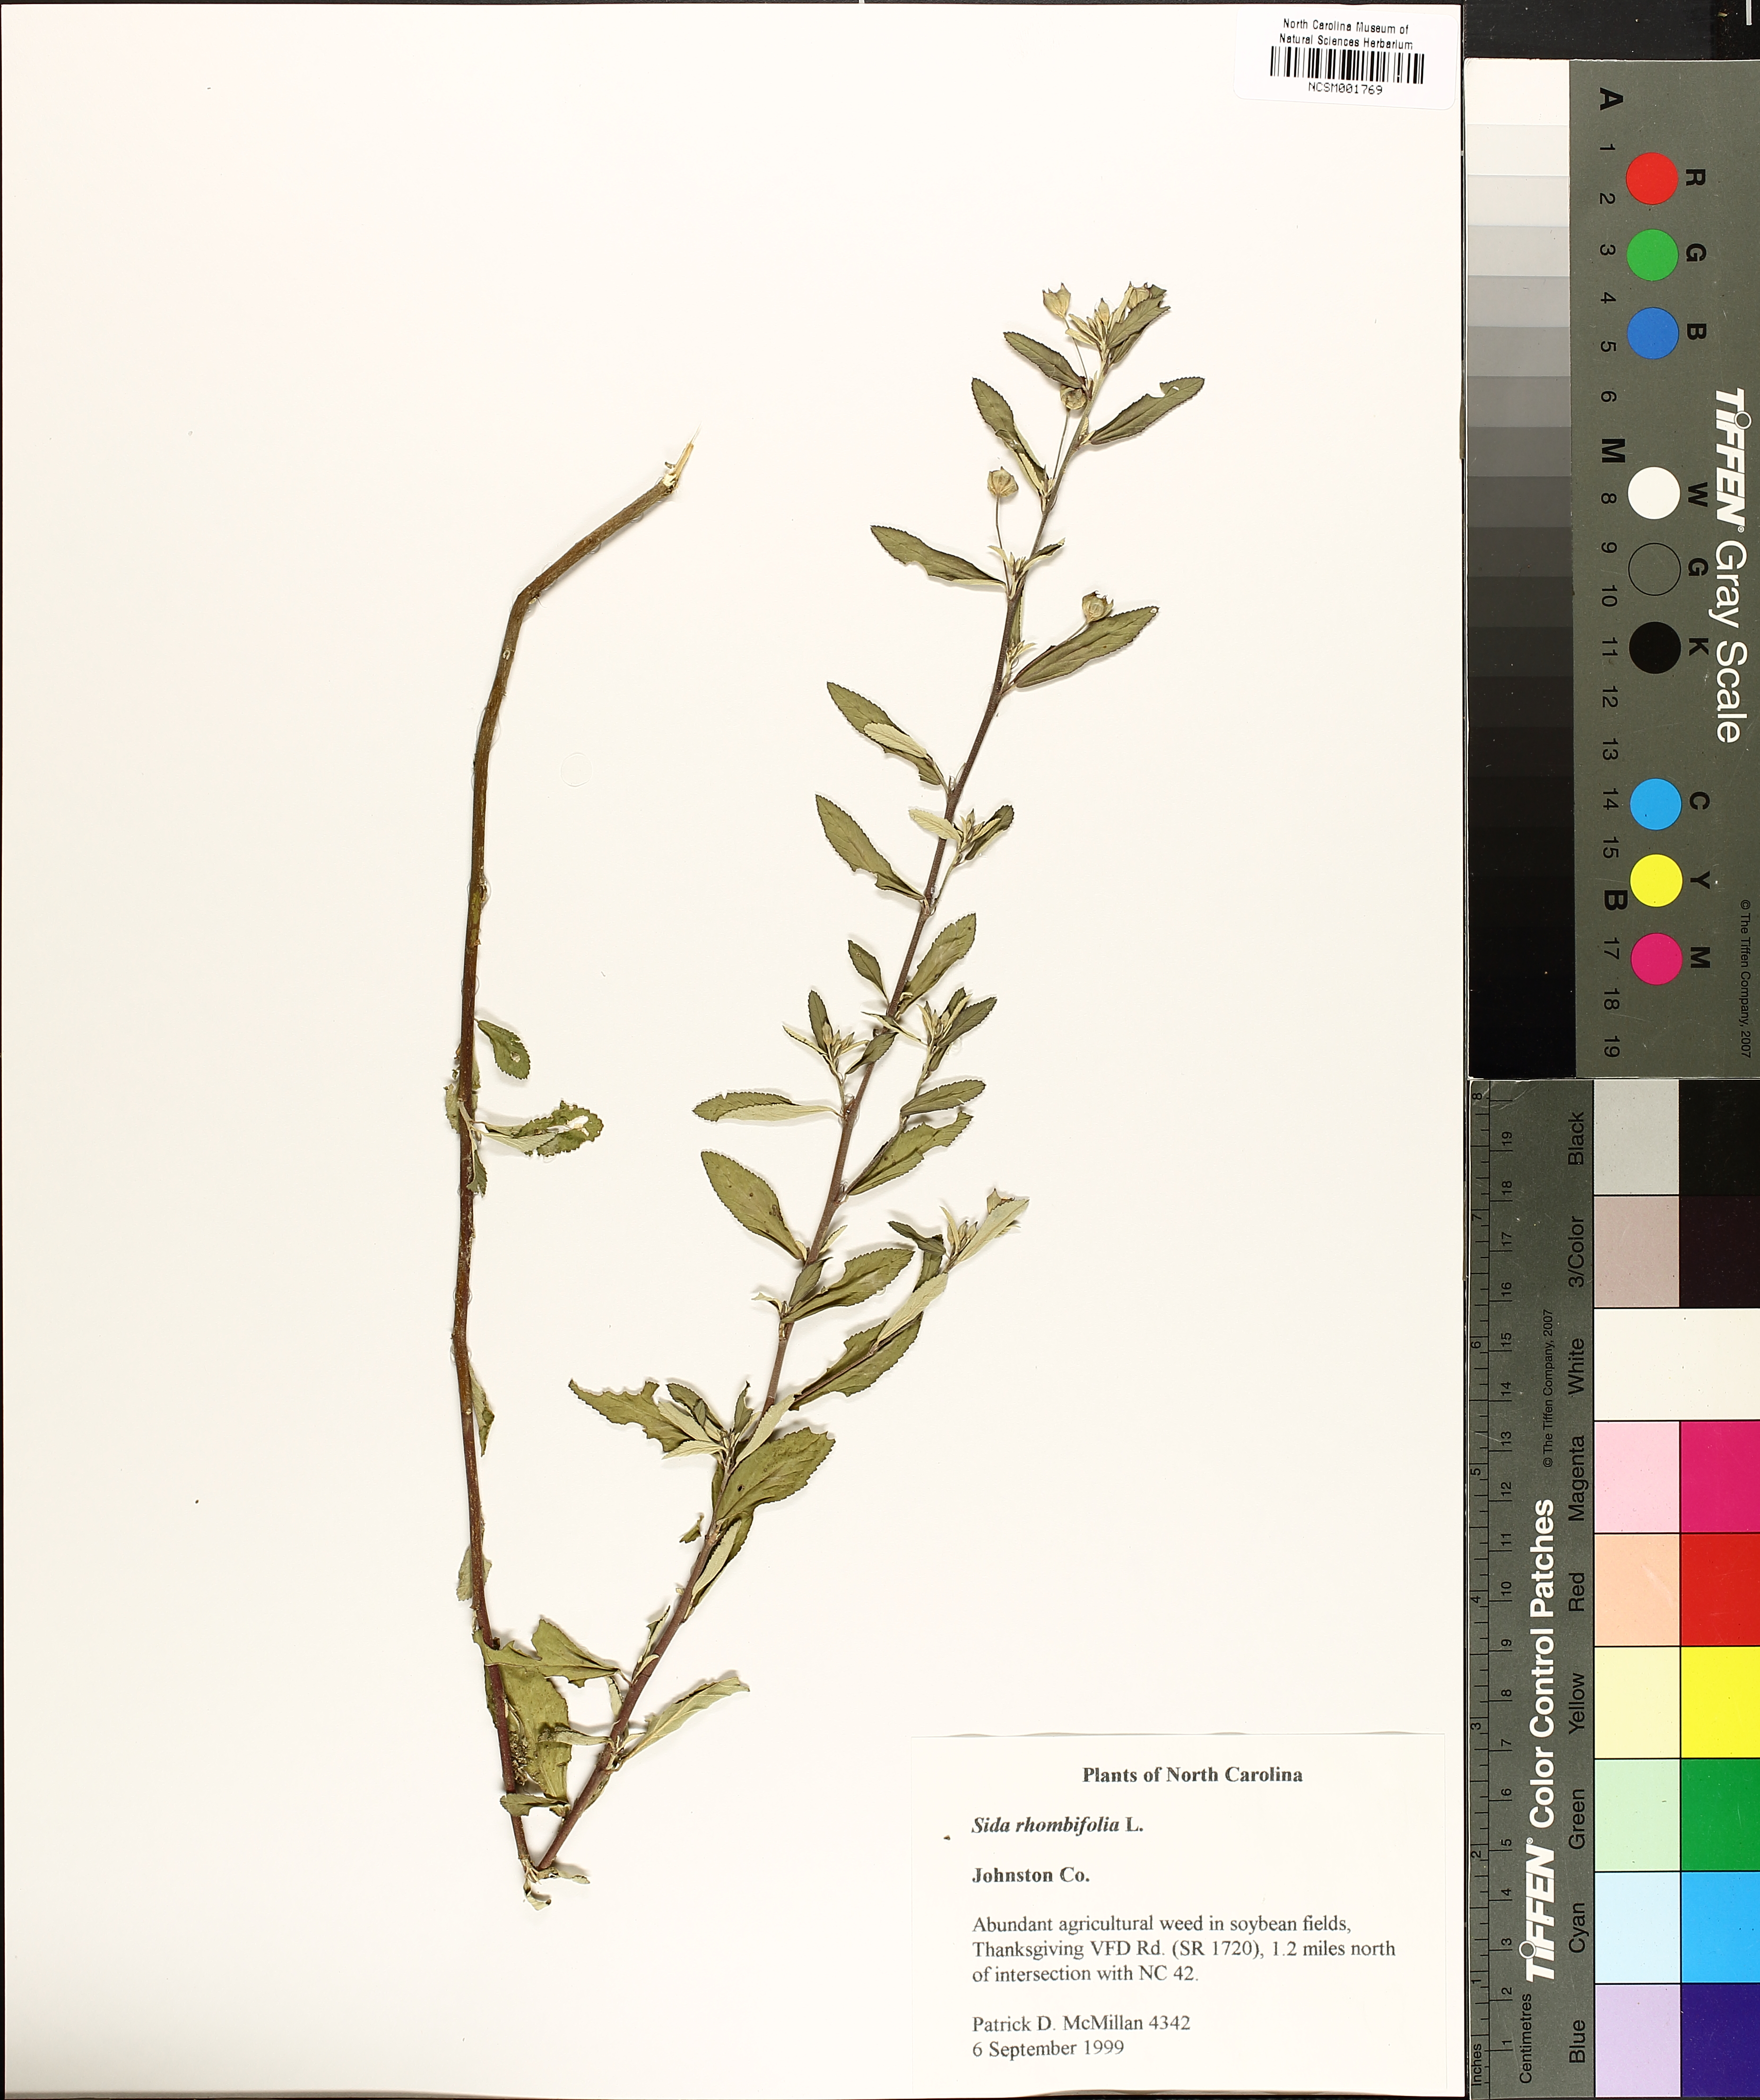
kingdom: Plantae
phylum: Tracheophyta
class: Magnoliopsida
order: Malvales
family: Malvaceae
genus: Sida
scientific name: Sida rhombifolia
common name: Queensland-hemp
